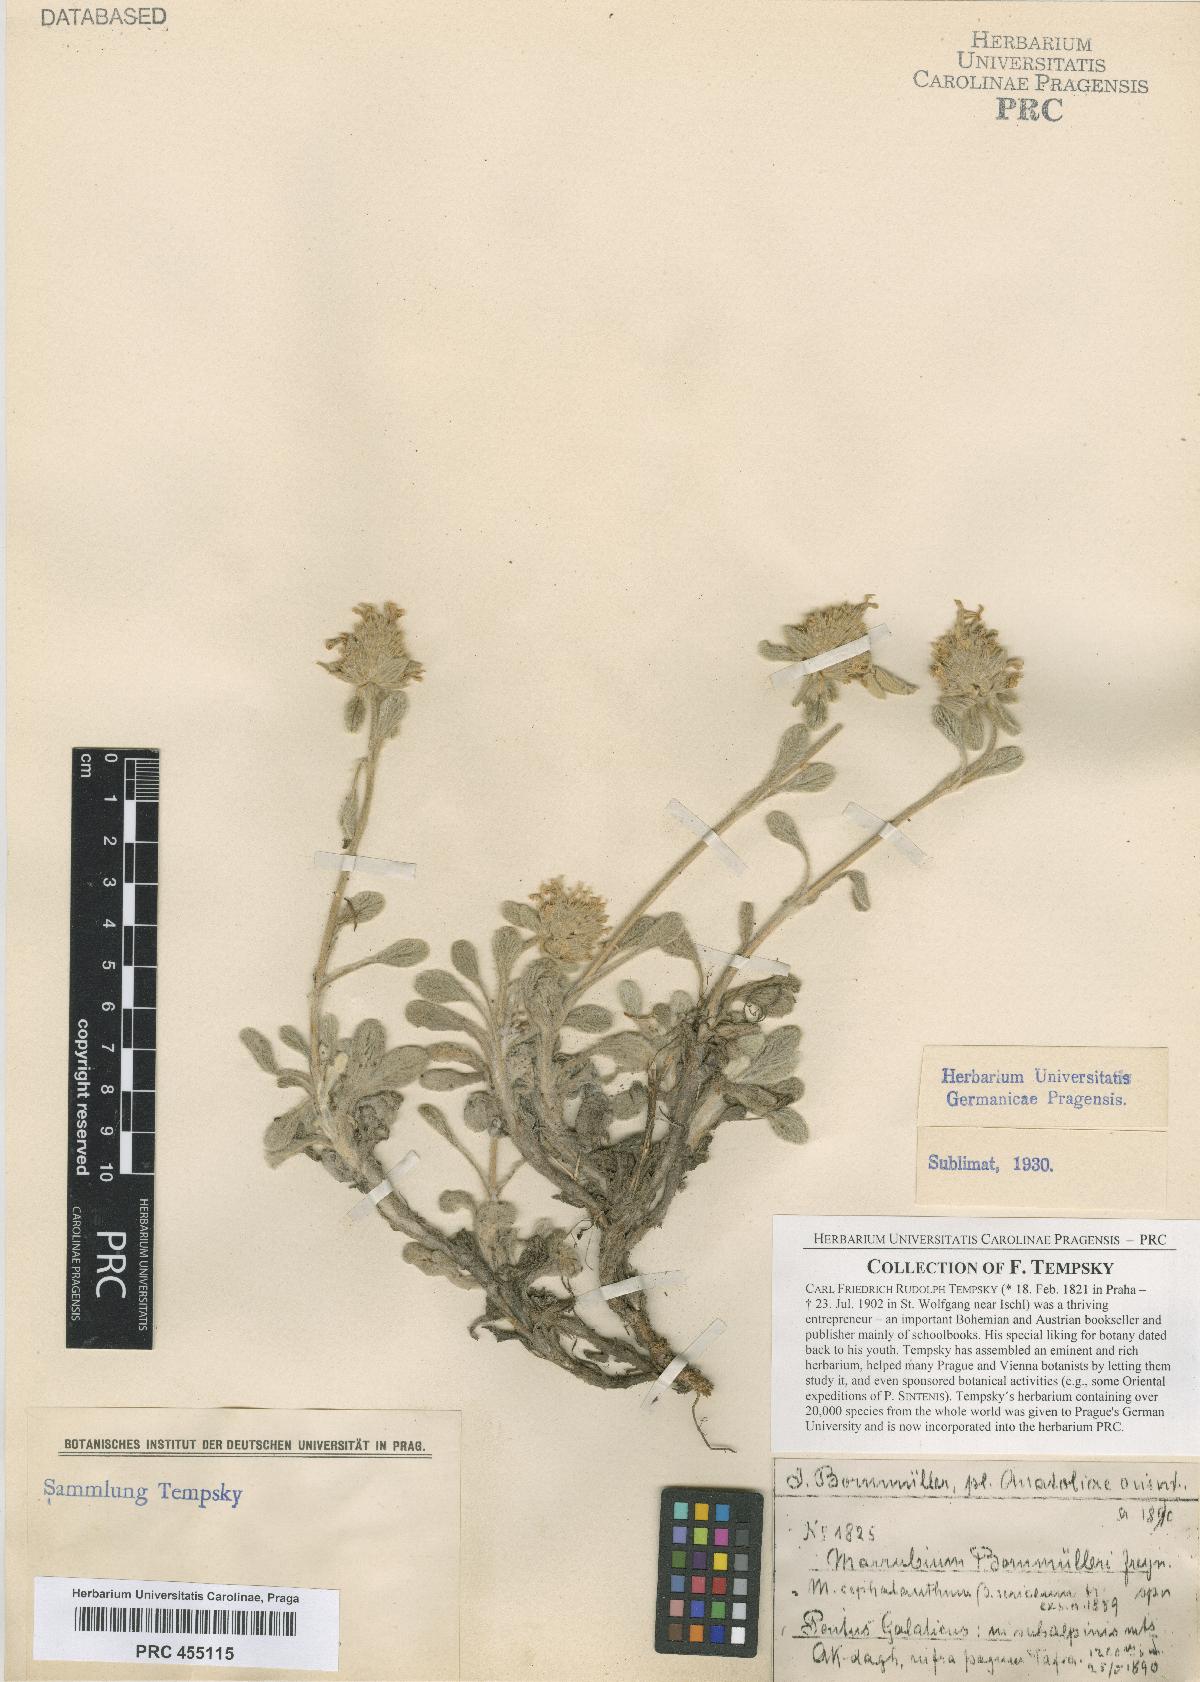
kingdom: Plantae
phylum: Tracheophyta
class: Magnoliopsida
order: Lamiales
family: Lamiaceae
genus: Marrubium
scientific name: Marrubium cephalanthum
